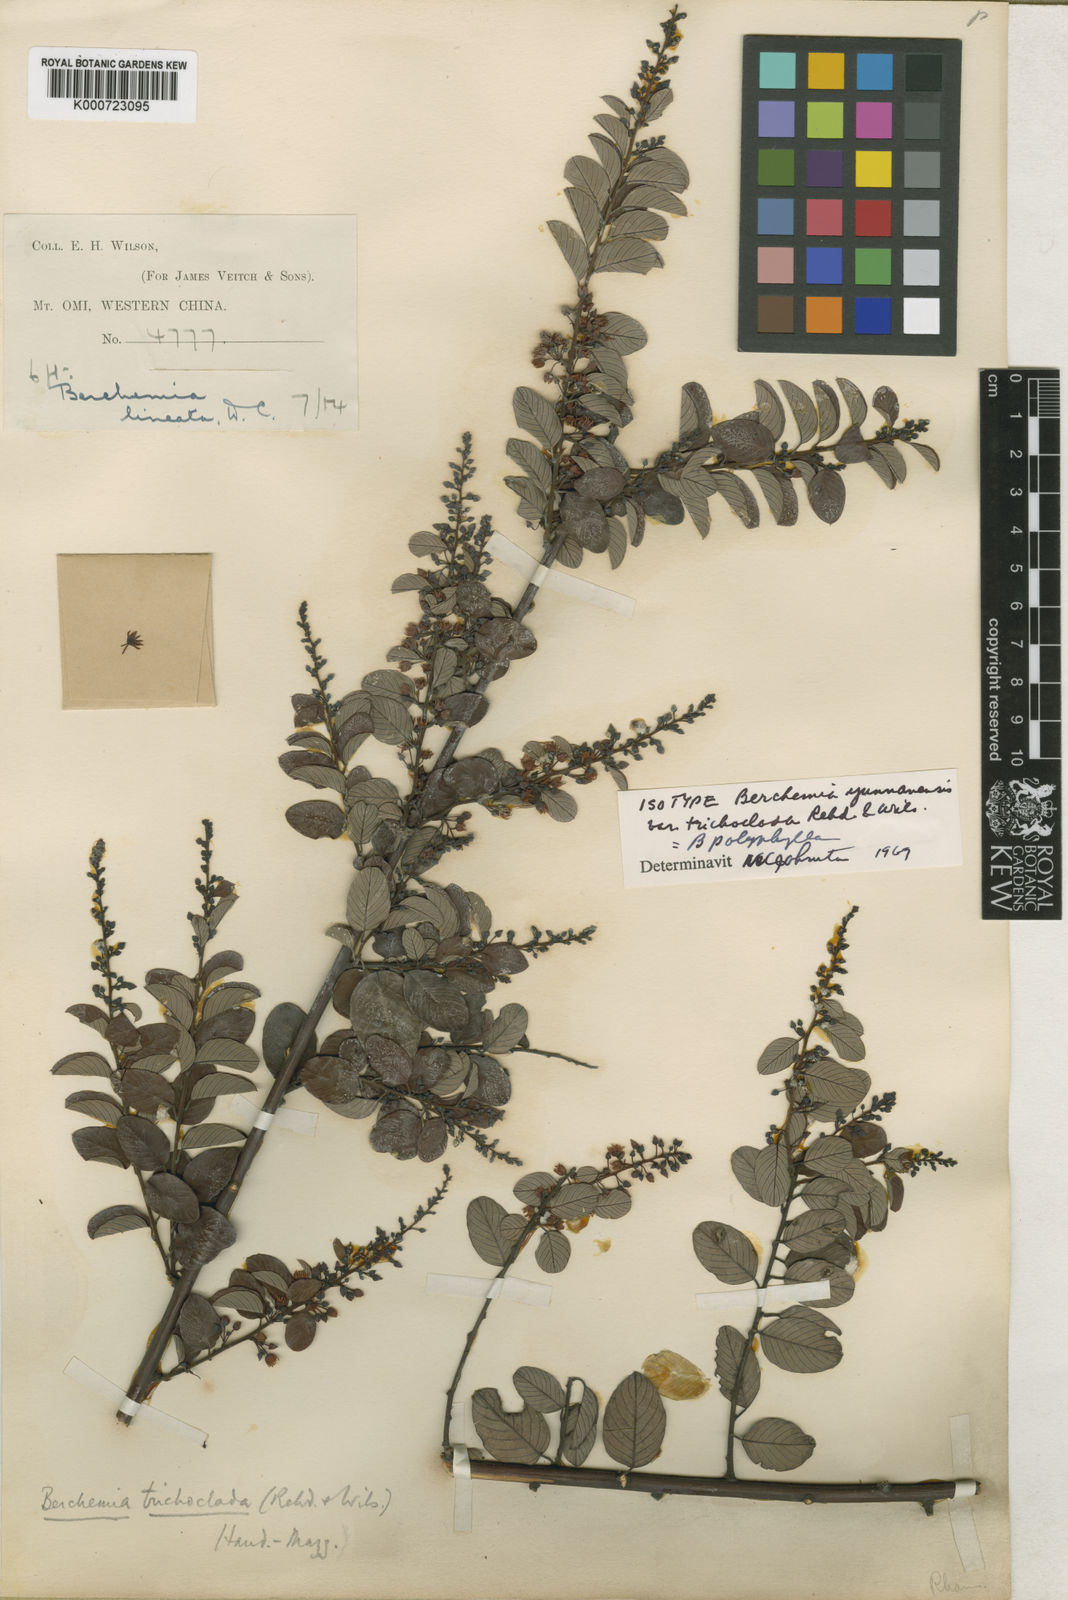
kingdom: Plantae
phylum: Tracheophyta
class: Magnoliopsida
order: Rosales
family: Rhamnaceae
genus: Berchemia
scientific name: Berchemia polyphylla
